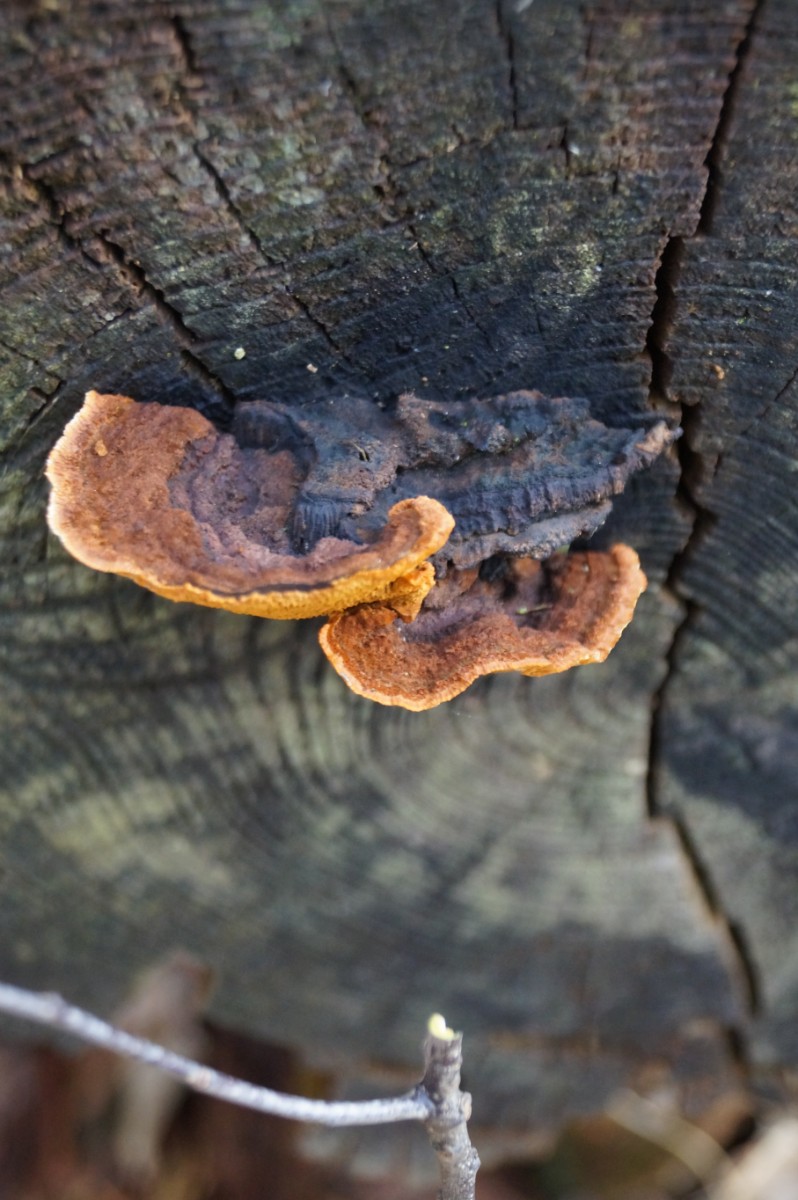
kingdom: Fungi
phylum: Basidiomycota
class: Agaricomycetes
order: Gloeophyllales
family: Gloeophyllaceae
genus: Gloeophyllum
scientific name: Gloeophyllum sepiarium
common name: fyrre-korkhat
